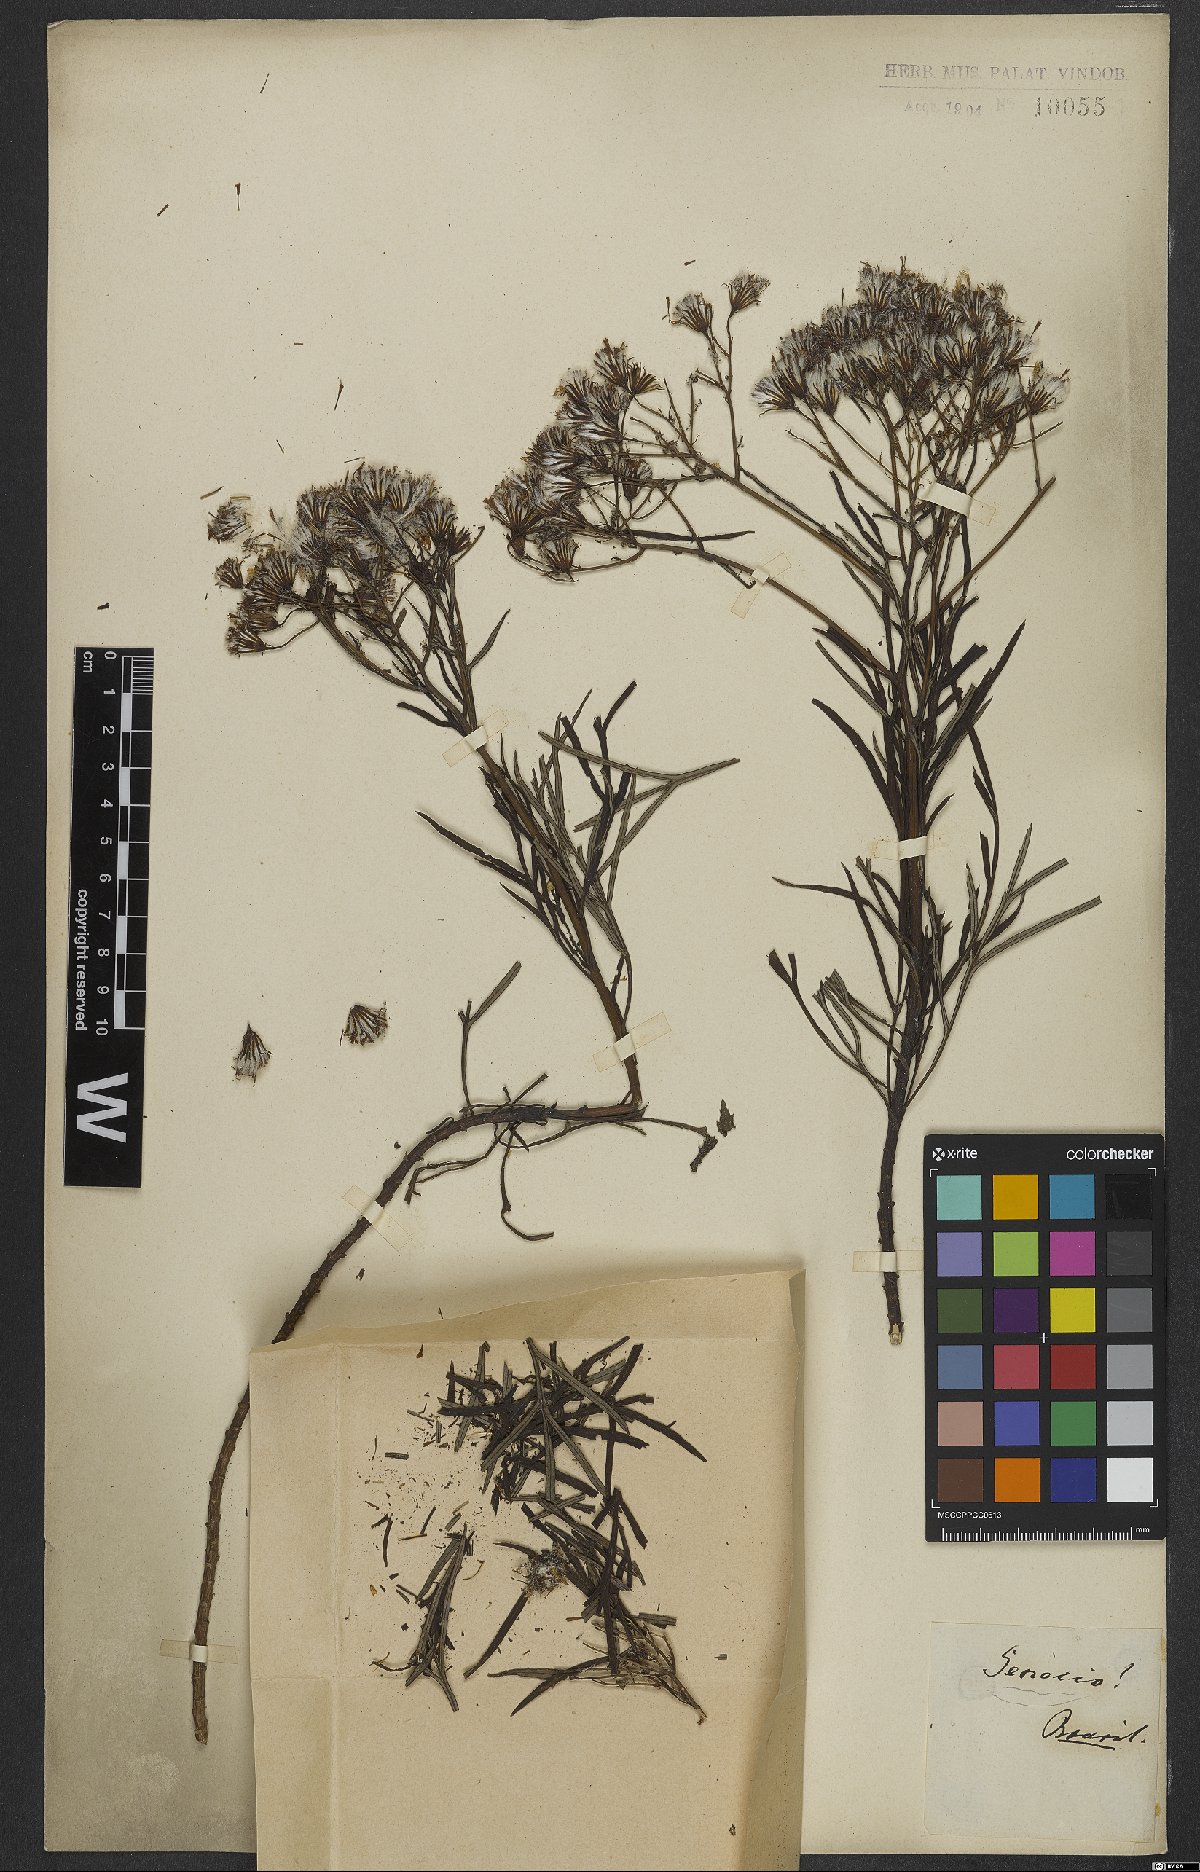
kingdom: Plantae
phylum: Tracheophyta
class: Magnoliopsida
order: Asterales
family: Asteraceae
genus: Senecio
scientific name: Senecio
